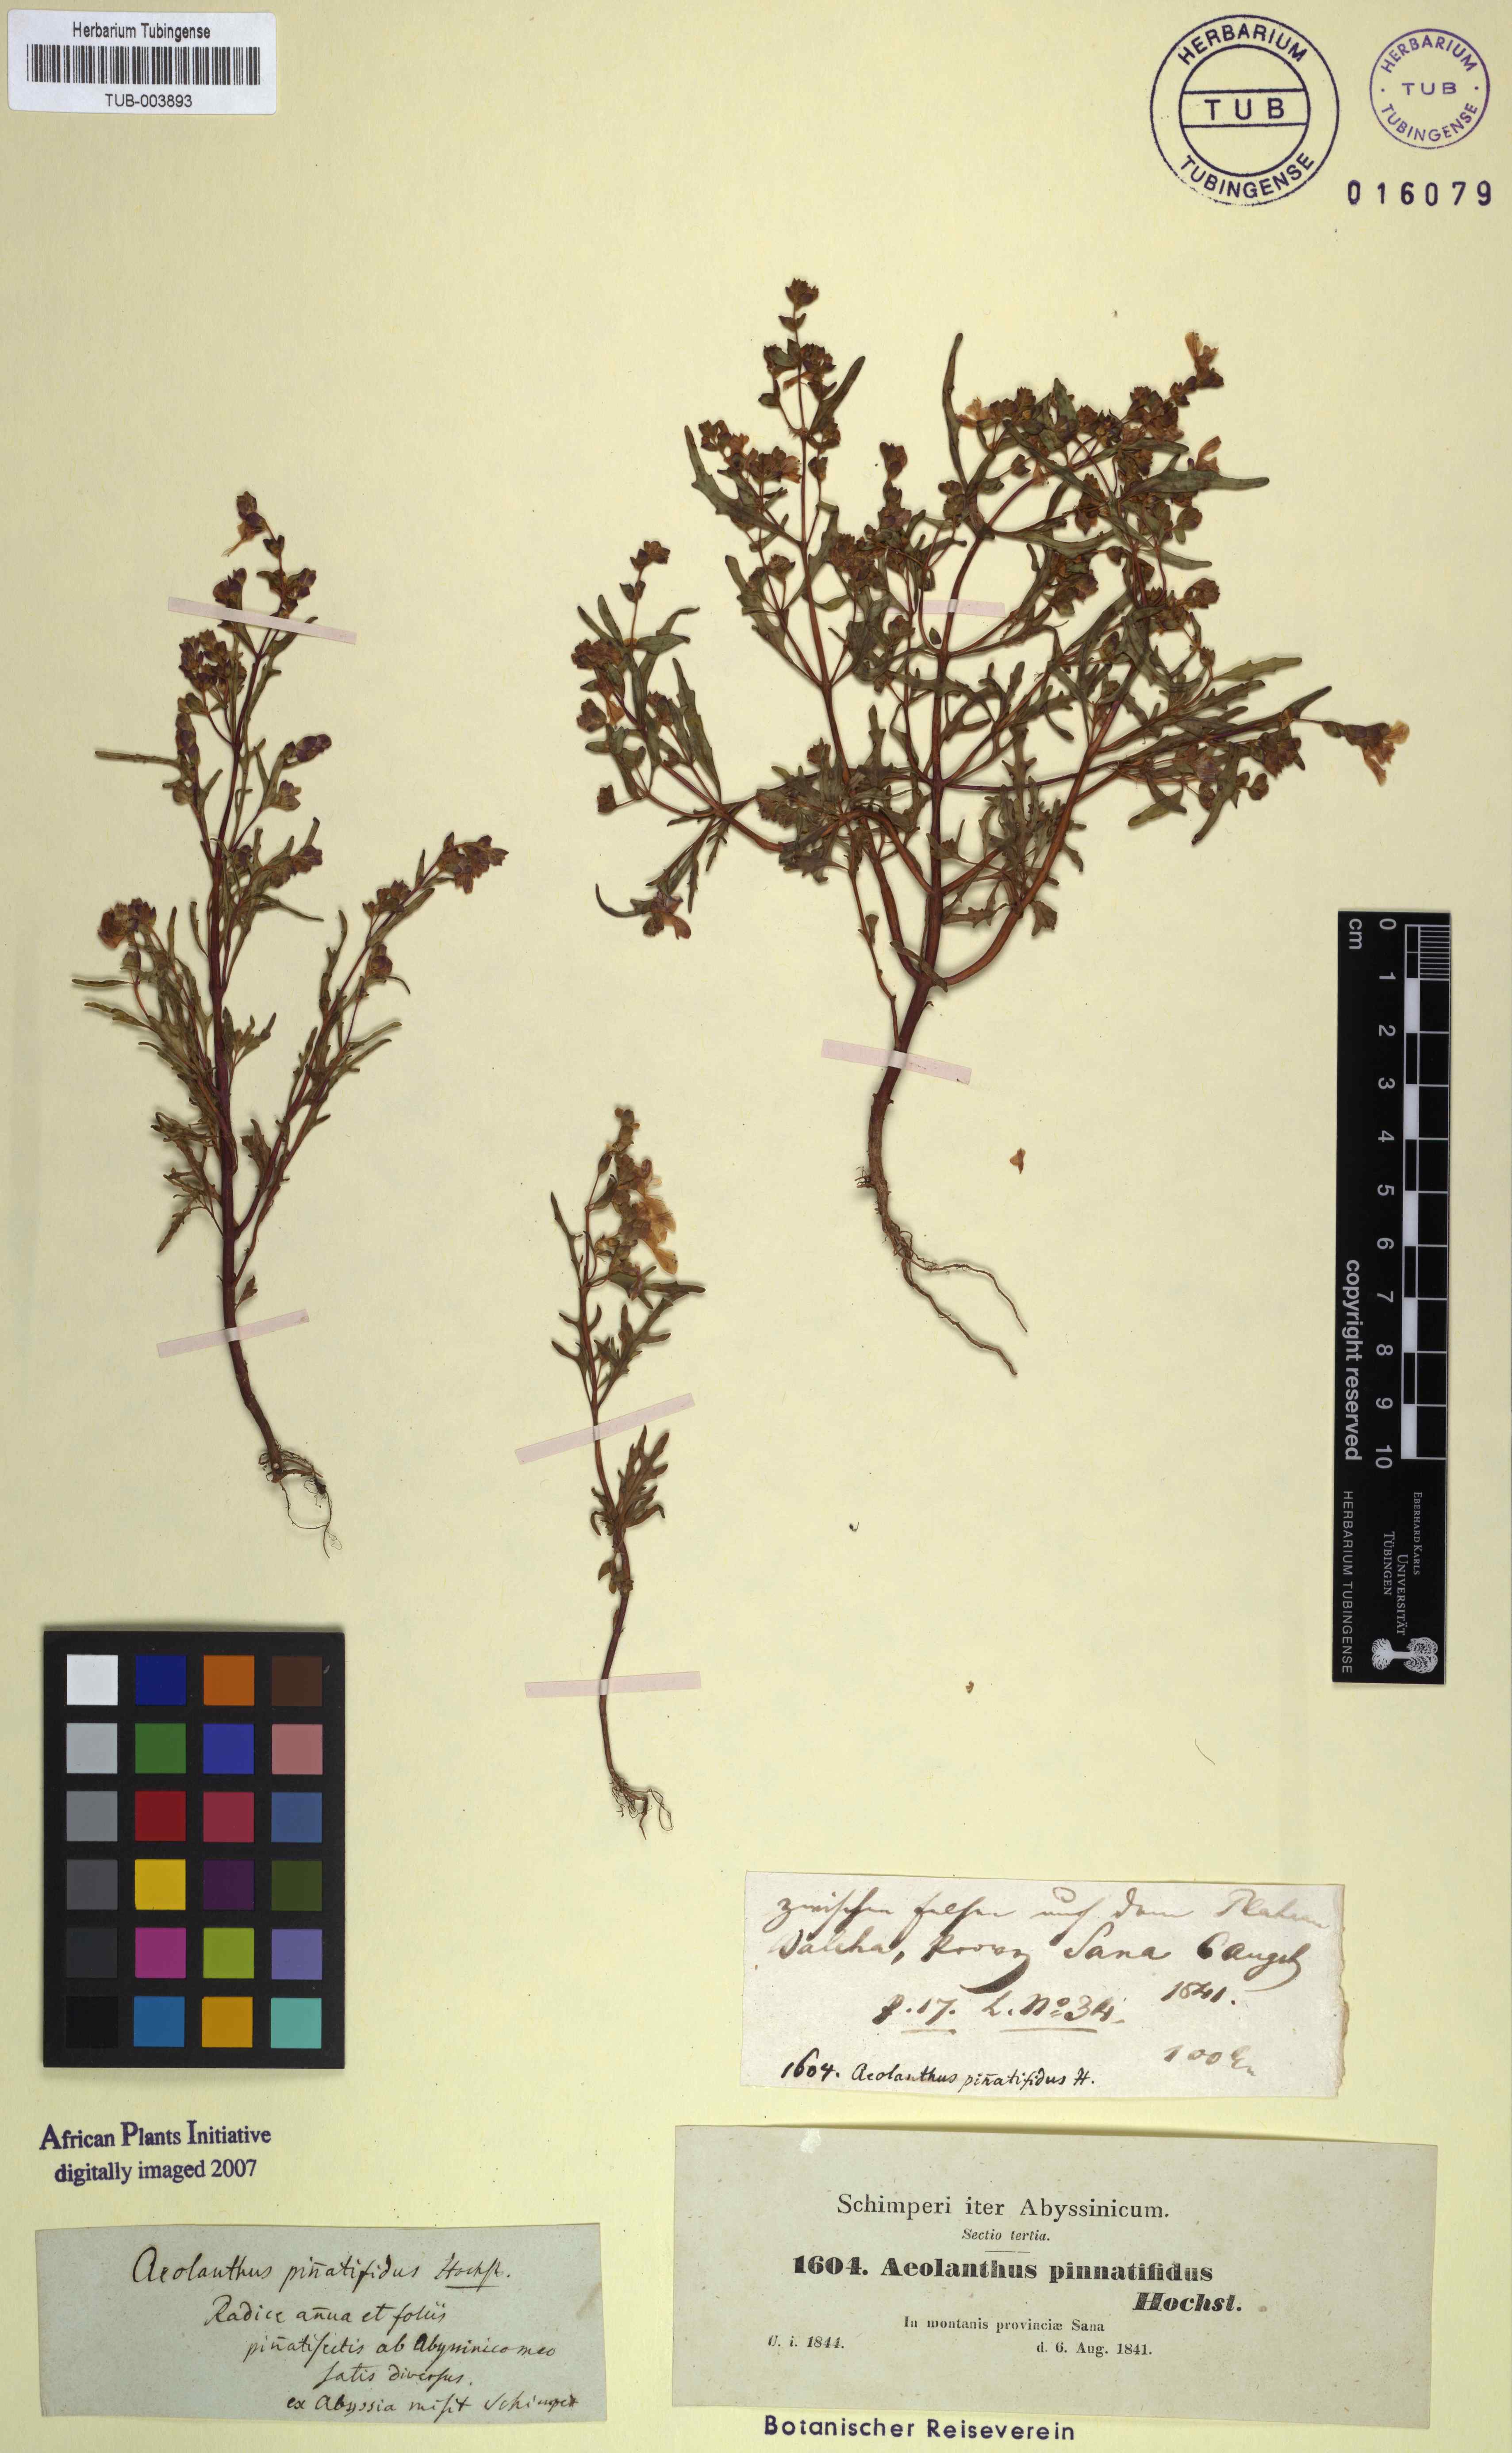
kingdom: Plantae
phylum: Tracheophyta
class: Magnoliopsida
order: Lamiales
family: Lamiaceae
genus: Aeollanthus
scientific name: Aeollanthus pinnatifidus
